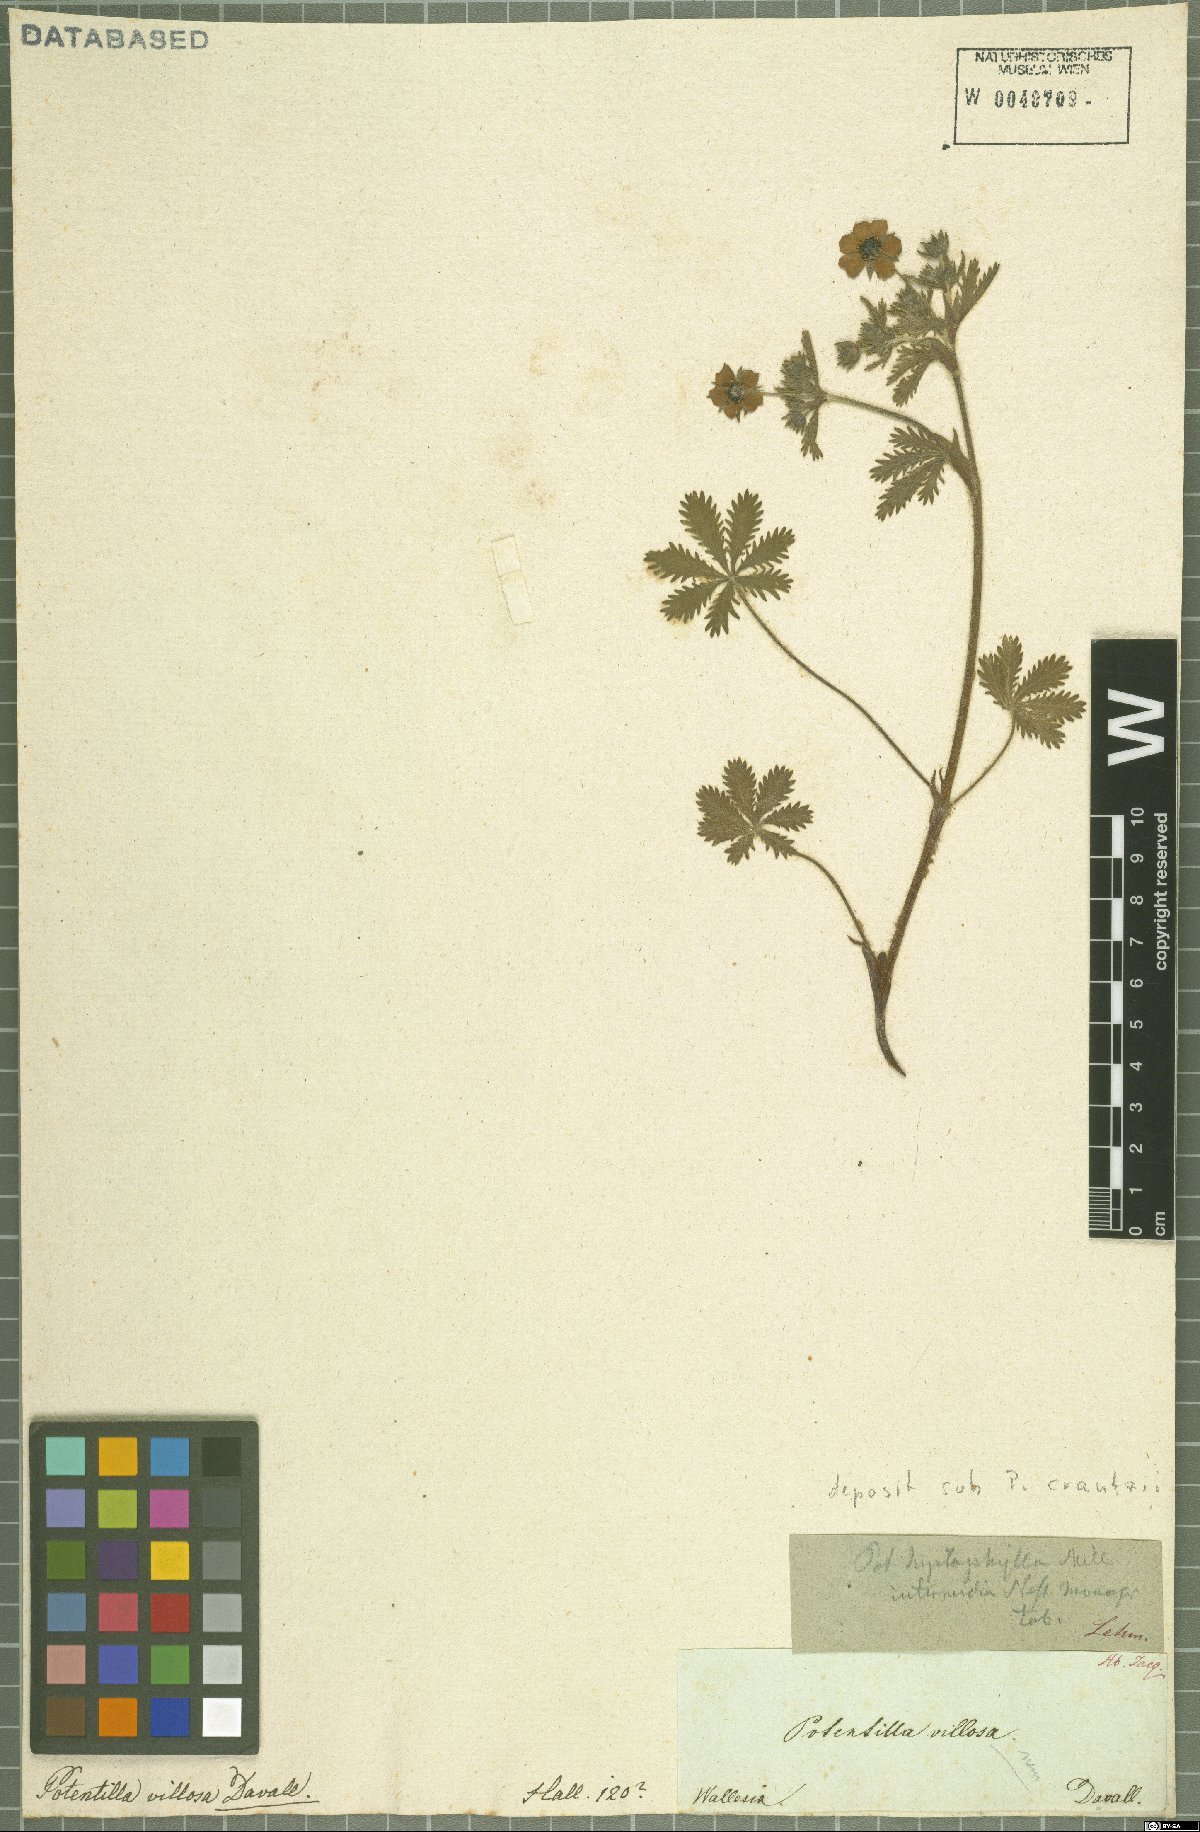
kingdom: Plantae
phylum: Tracheophyta
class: Magnoliopsida
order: Rosales
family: Rosaceae
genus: Potentilla
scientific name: Potentilla crantzii
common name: Alpine cinquefoil
